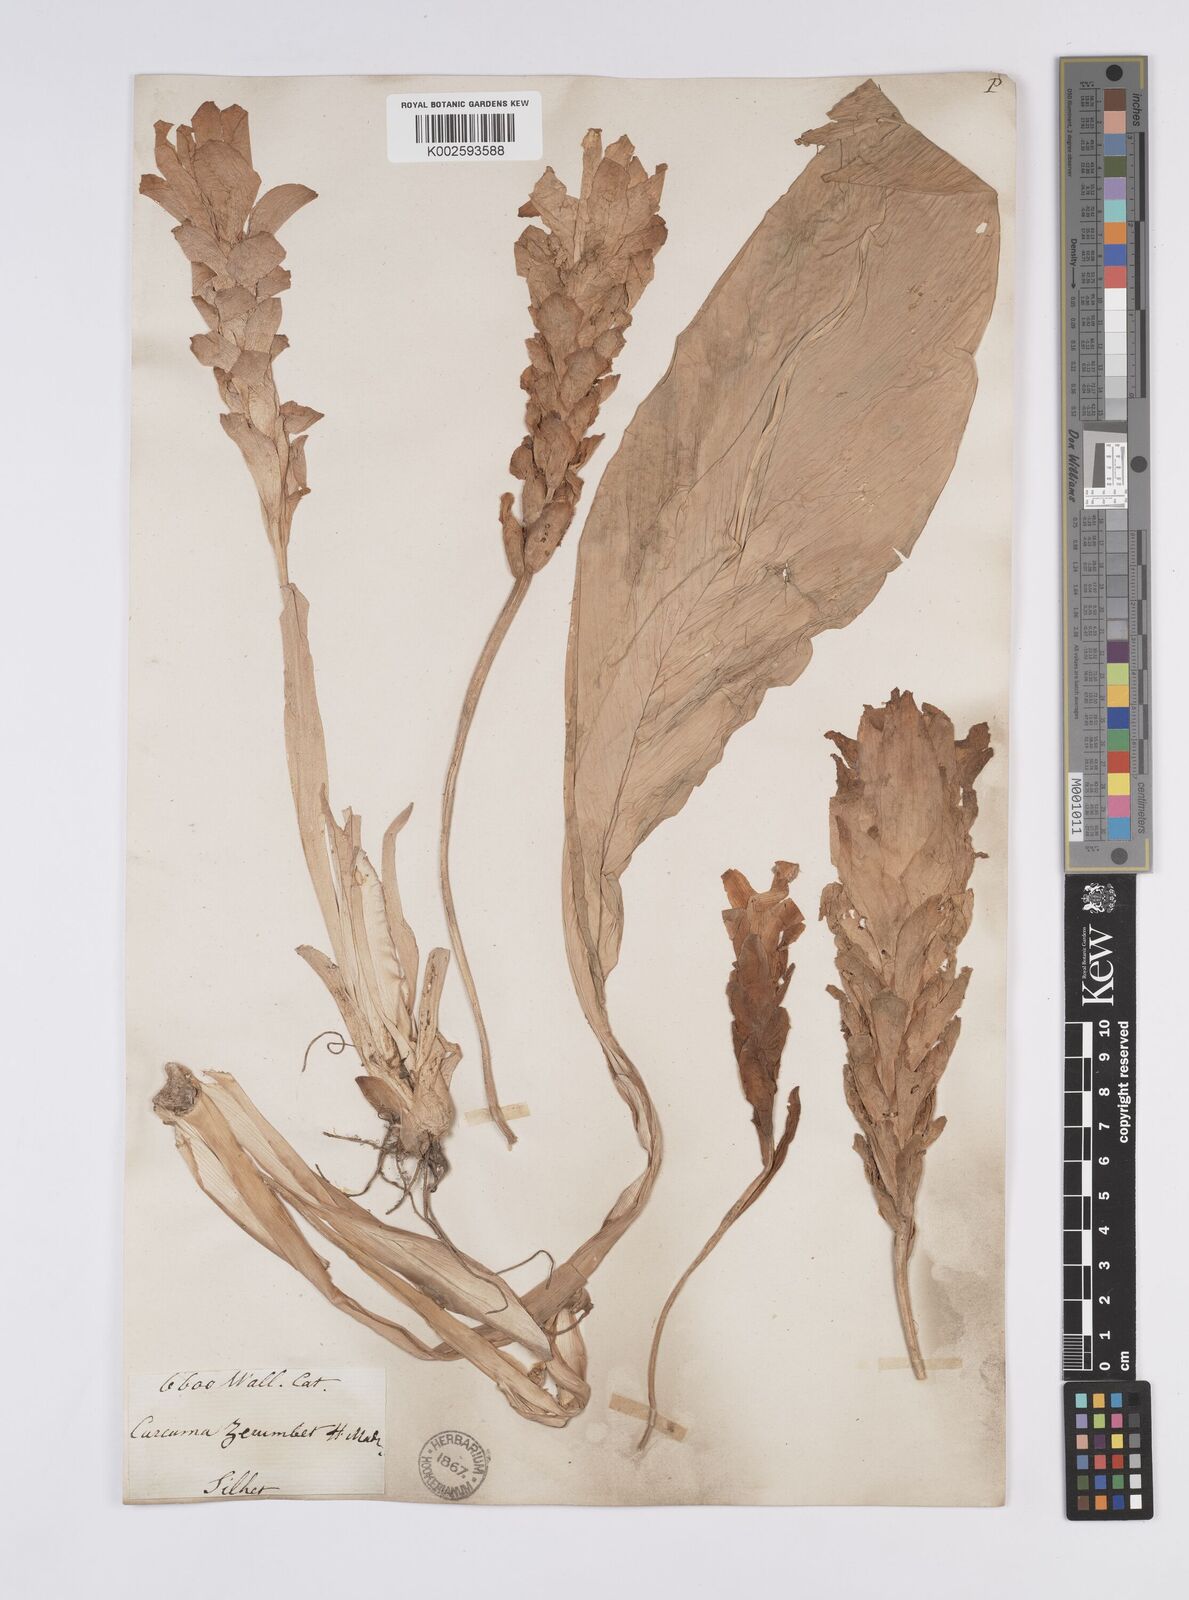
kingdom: Plantae
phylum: Tracheophyta
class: Liliopsida
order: Zingiberales
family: Zingiberaceae
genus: Curcuma
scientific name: Curcuma aromatica
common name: Wild turmeric
